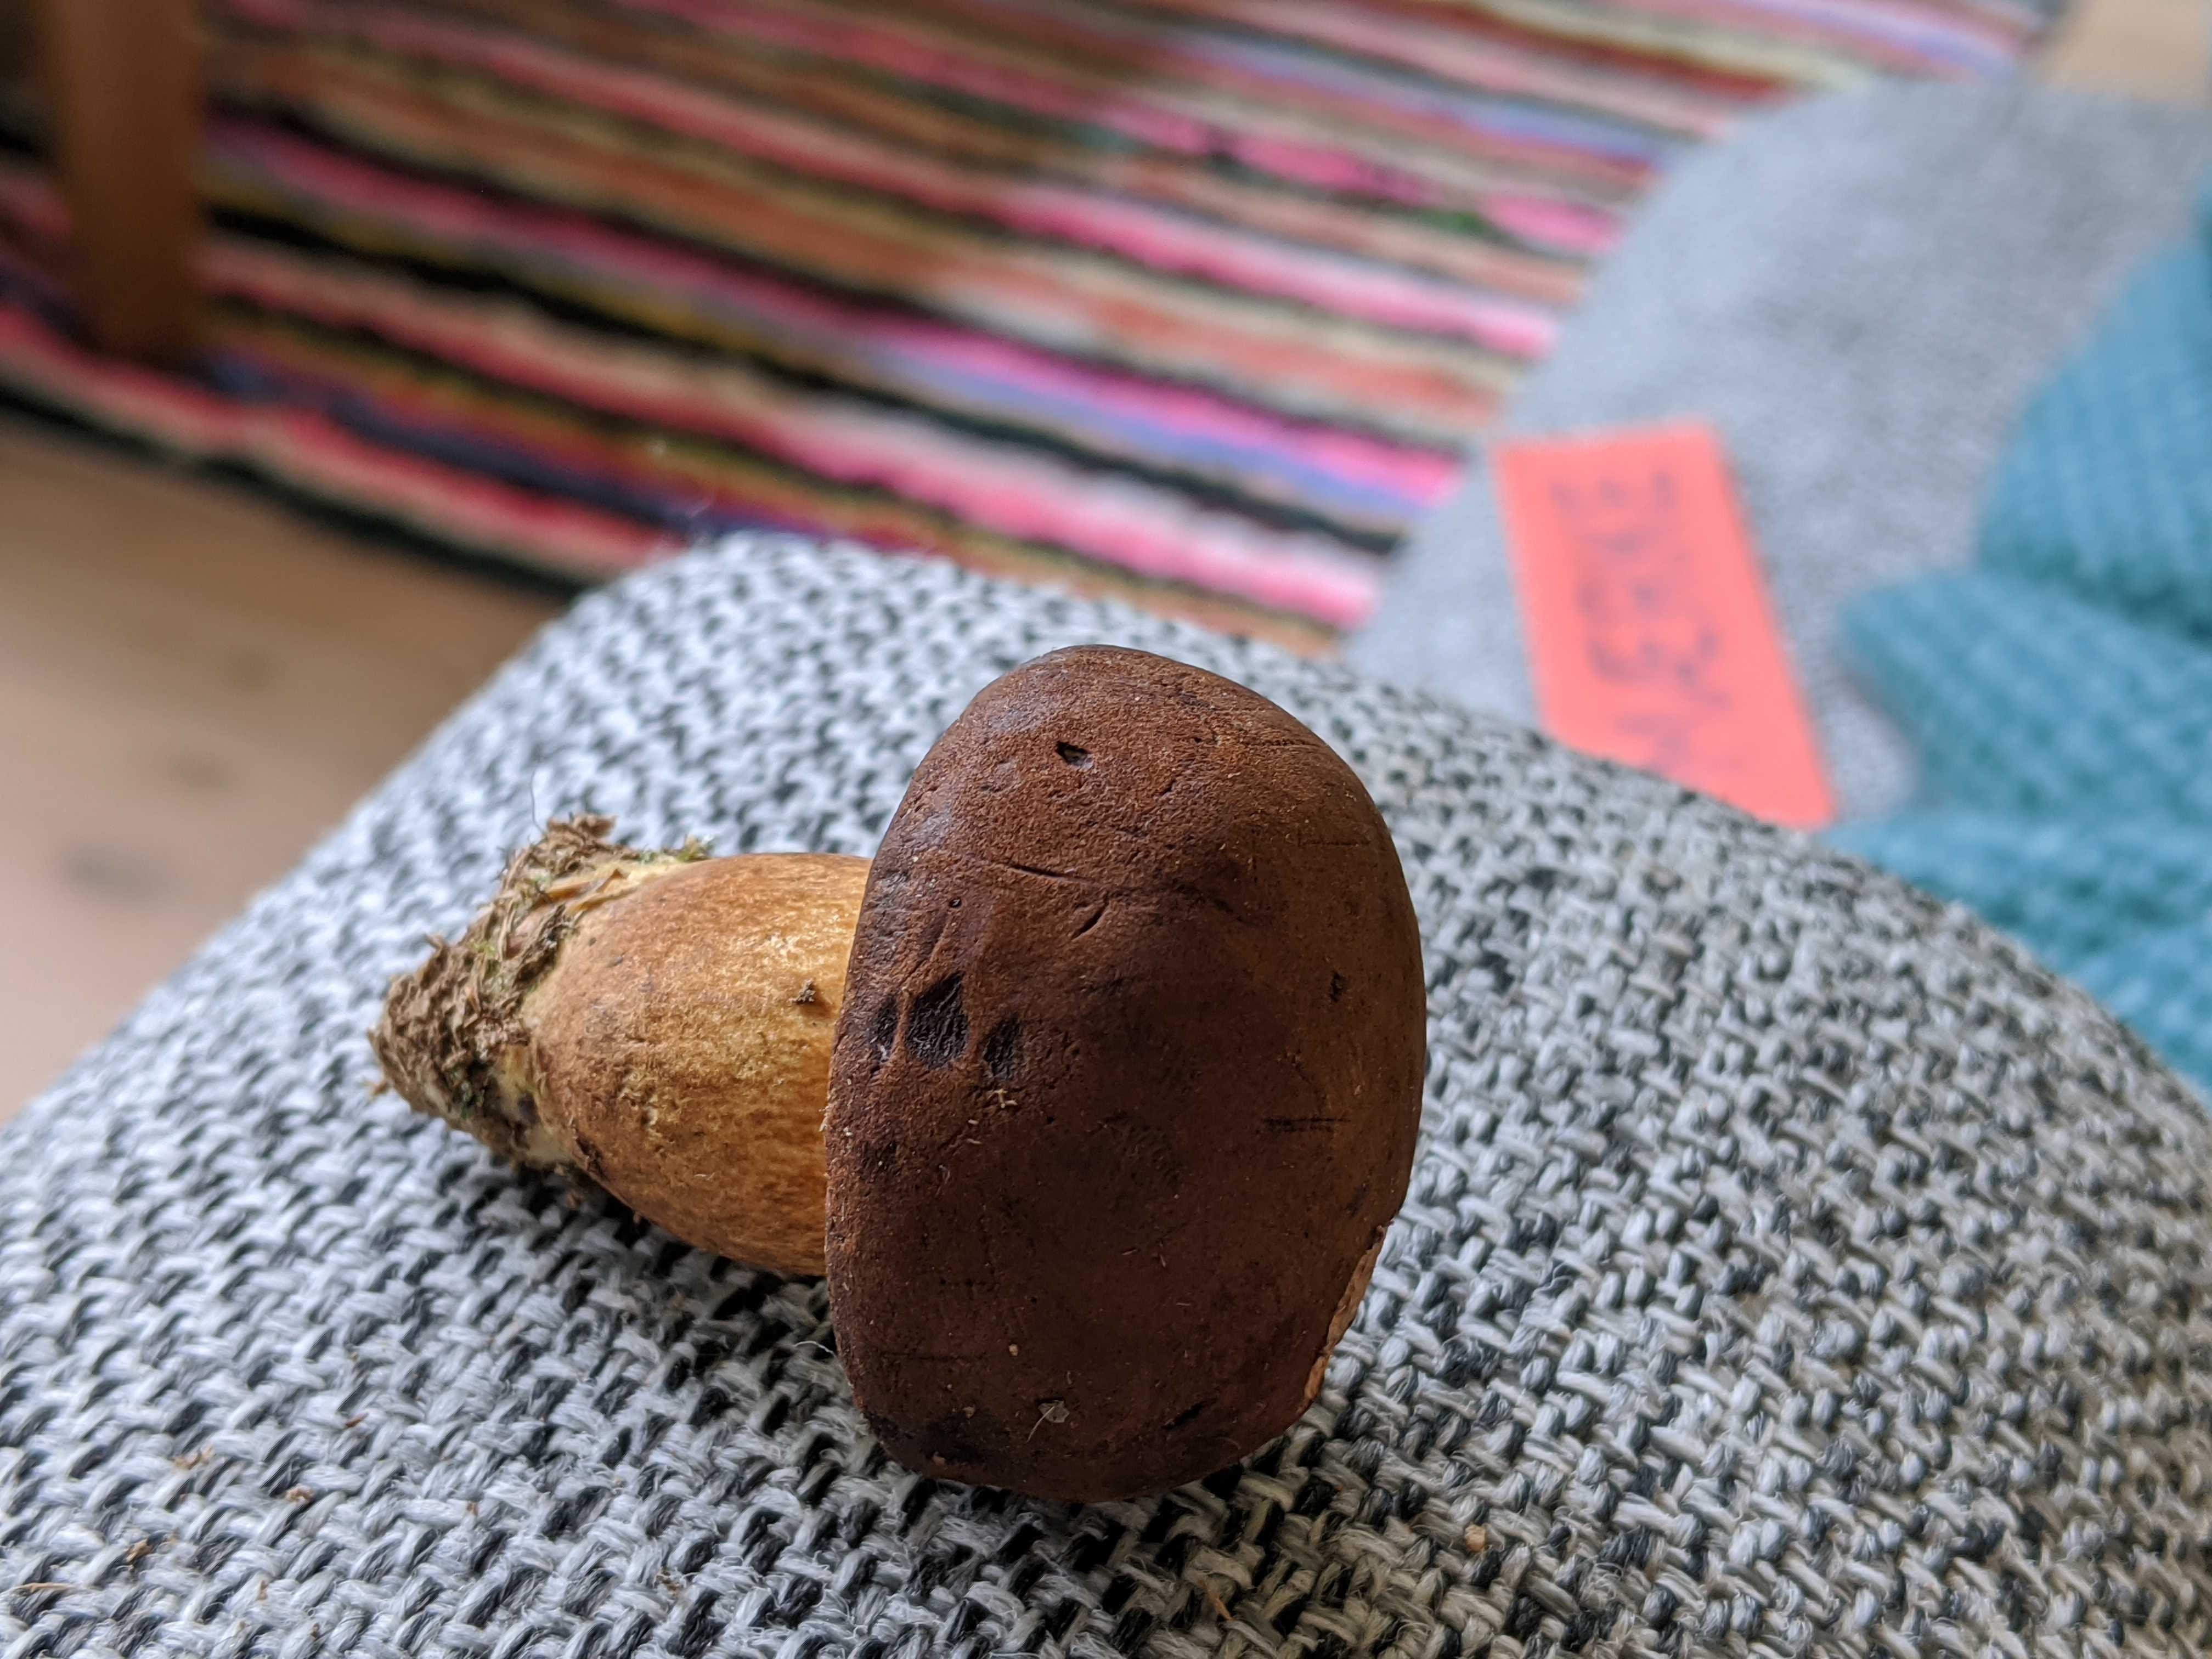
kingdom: Fungi
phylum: Basidiomycota
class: Agaricomycetes
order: Boletales
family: Boletaceae
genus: Imleria
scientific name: Imleria badia
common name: brunstokket rørhat
